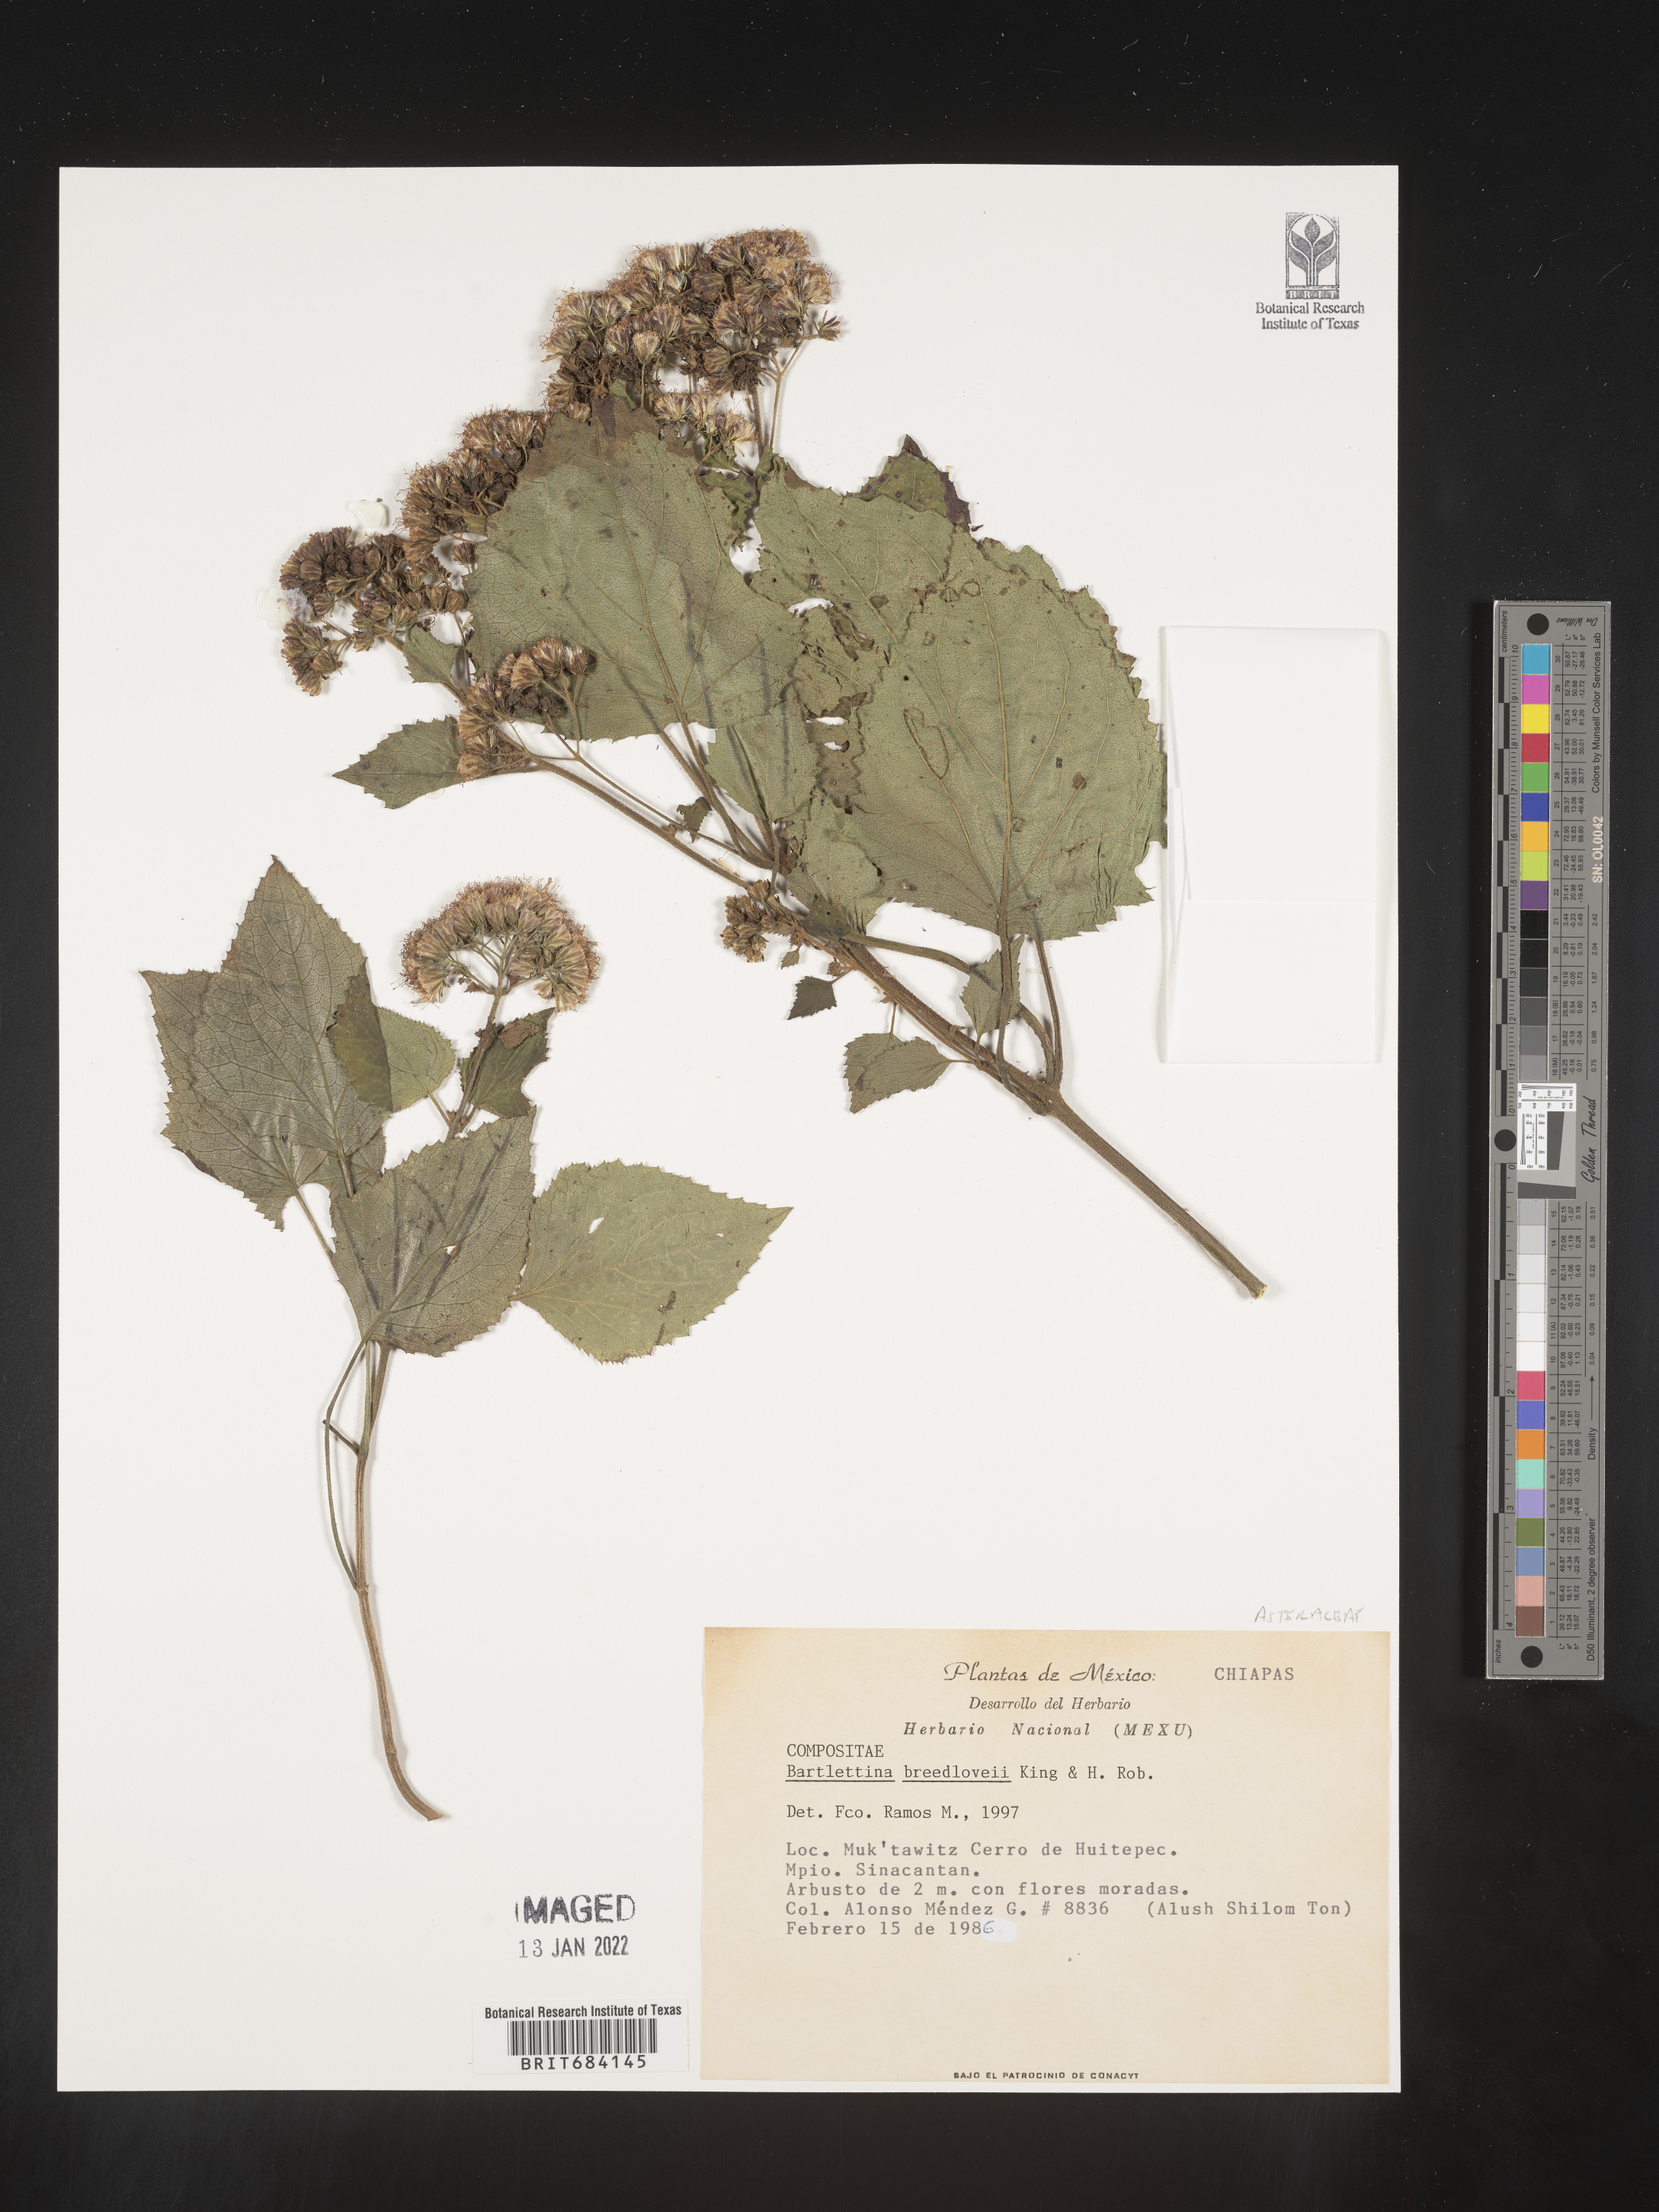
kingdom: Plantae
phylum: Tracheophyta
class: Magnoliopsida
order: Asterales
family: Asteraceae
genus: Bartlettina
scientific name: Bartlettina breedlovei
